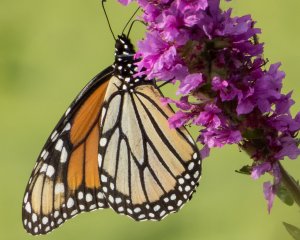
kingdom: Animalia
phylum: Arthropoda
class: Insecta
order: Lepidoptera
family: Nymphalidae
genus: Danaus
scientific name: Danaus plexippus
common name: Monarch
